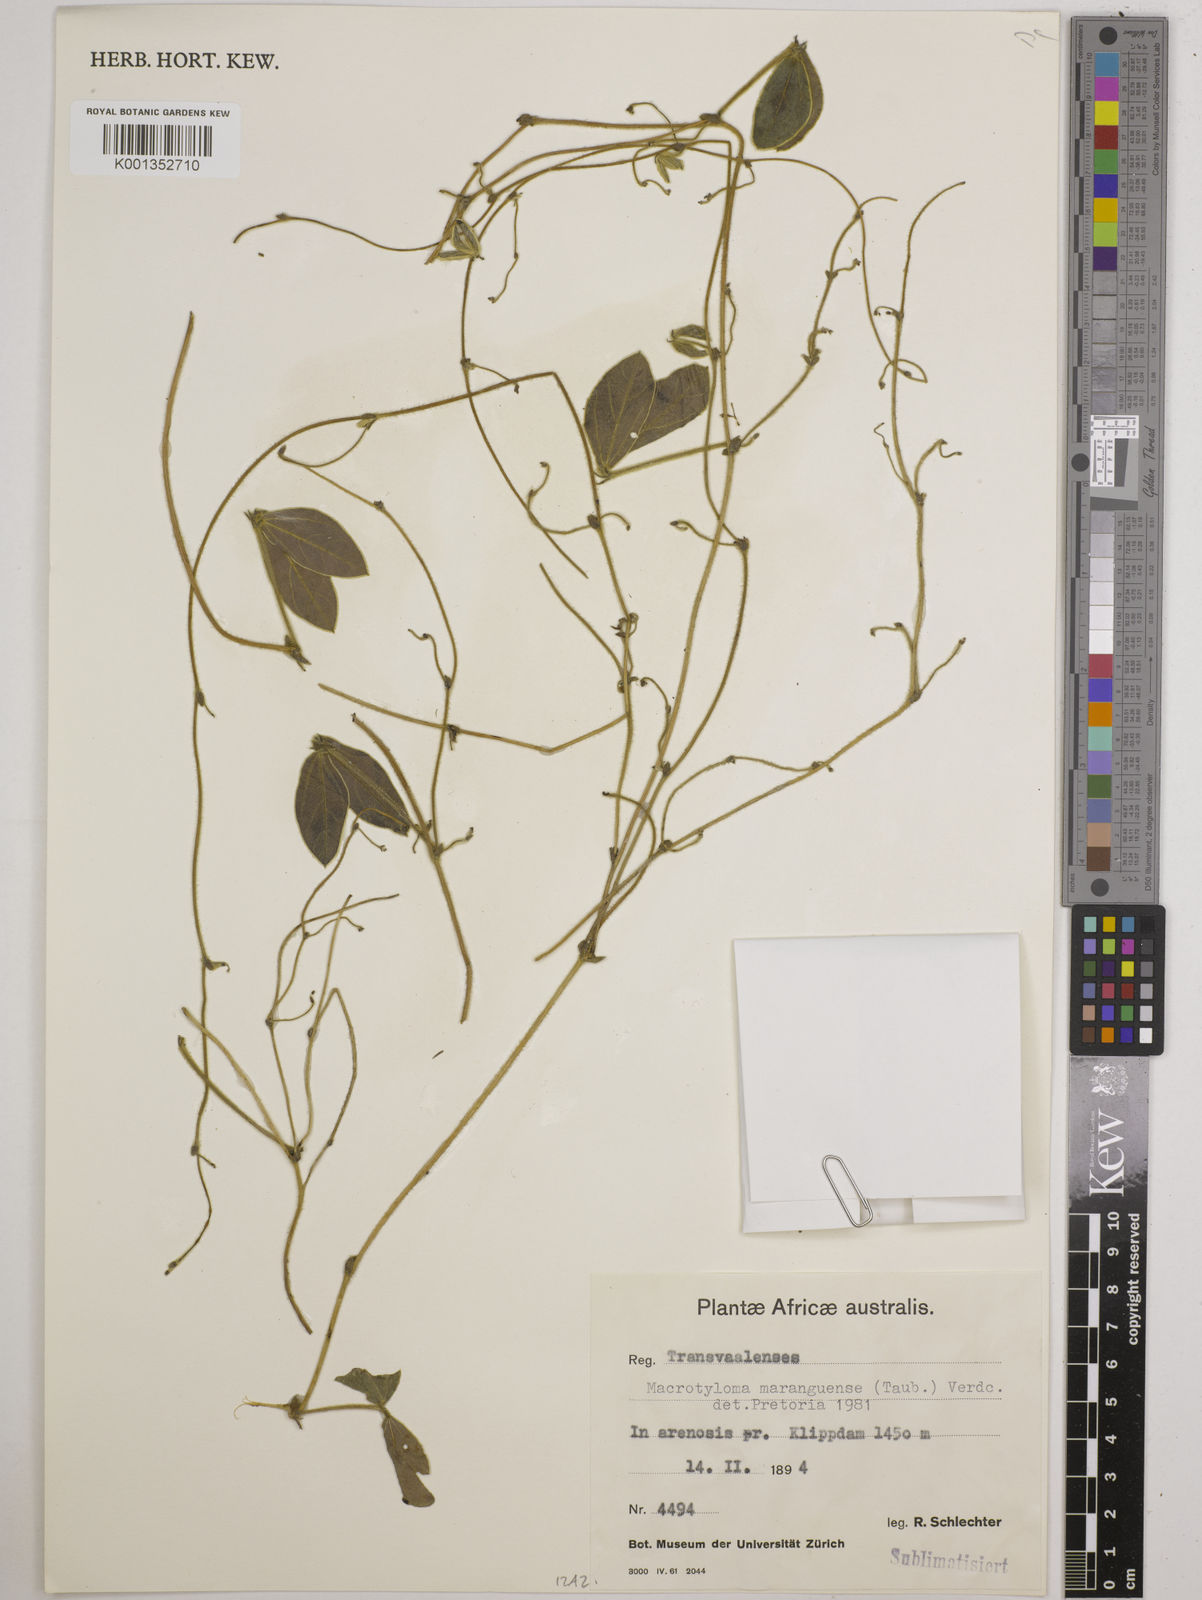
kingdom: Plantae
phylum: Tracheophyta
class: Magnoliopsida
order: Fabales
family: Fabaceae
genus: Macrotyloma
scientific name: Macrotyloma maranguense
